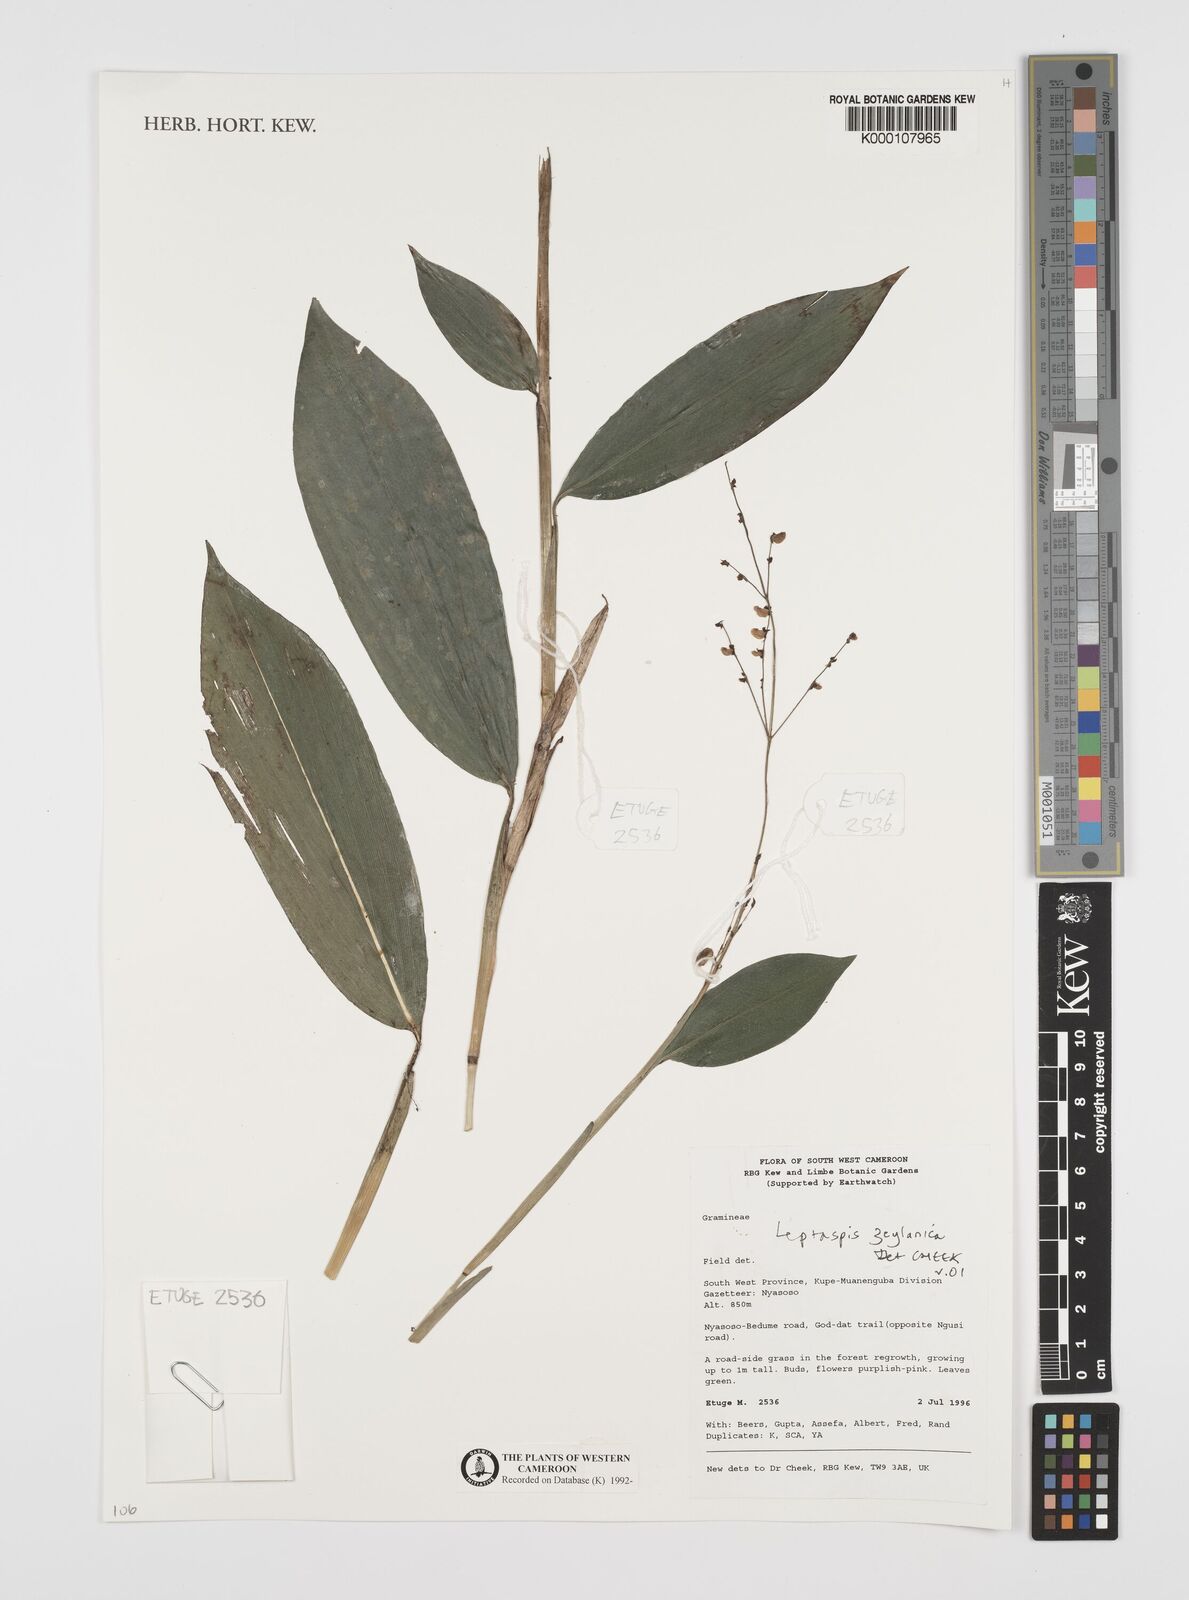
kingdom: Plantae
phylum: Tracheophyta
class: Liliopsida
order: Poales
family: Poaceae
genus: Leptaspis
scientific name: Leptaspis zeylanica
